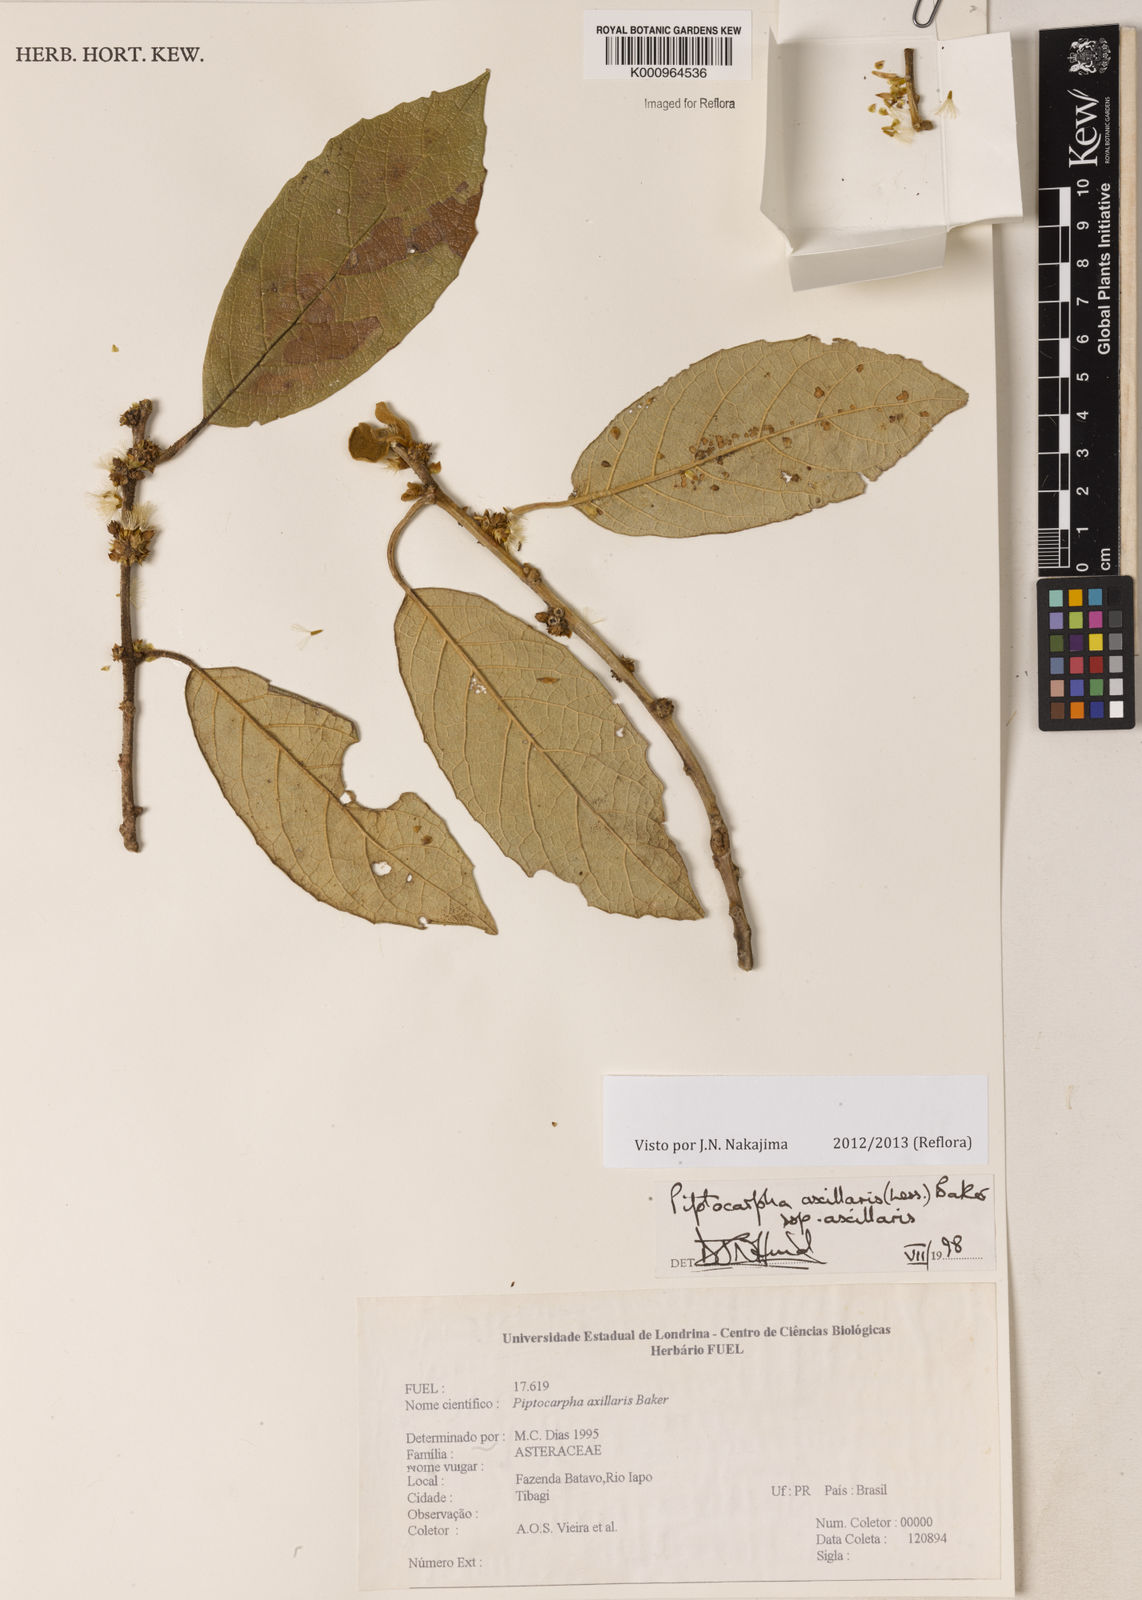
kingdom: Plantae
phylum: Tracheophyta
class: Magnoliopsida
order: Asterales
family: Asteraceae
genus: Piptocarpha
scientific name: Piptocarpha axillaris
